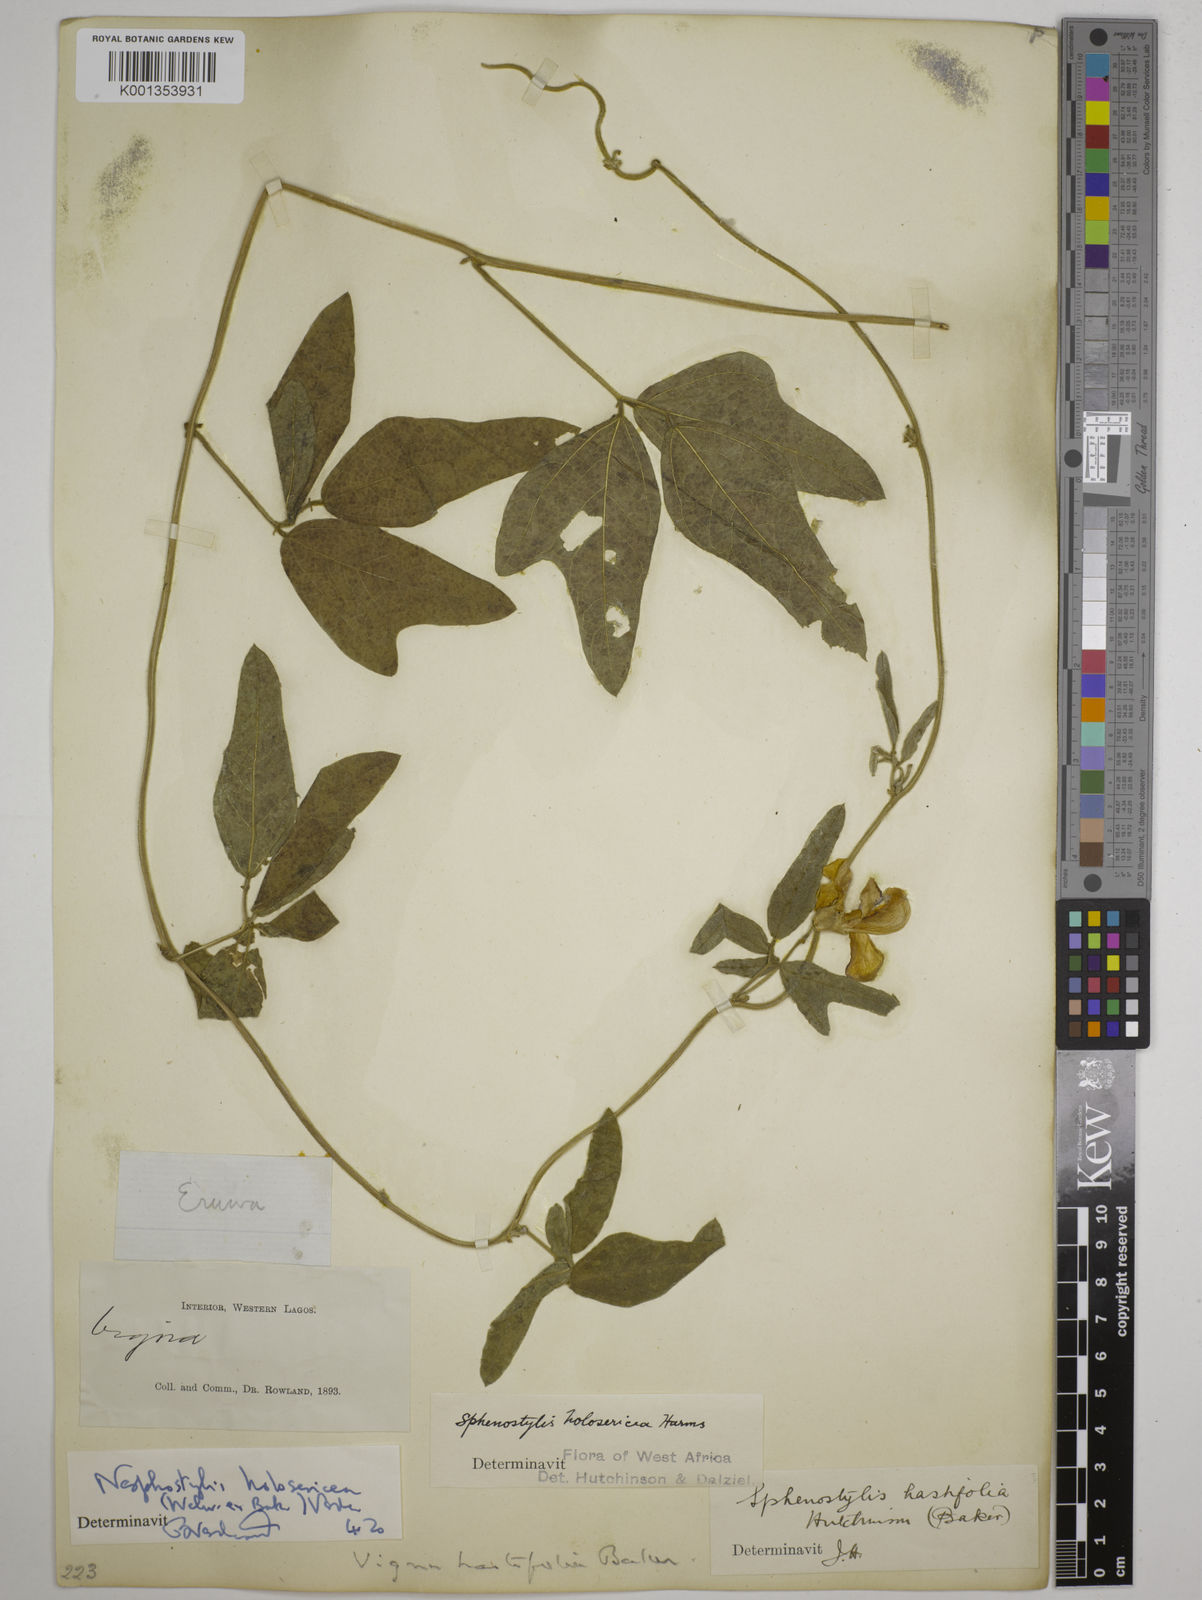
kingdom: Plantae
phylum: Tracheophyta
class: Magnoliopsida
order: Fabales
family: Fabaceae
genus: Nesphostylis
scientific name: Nesphostylis holosericea
